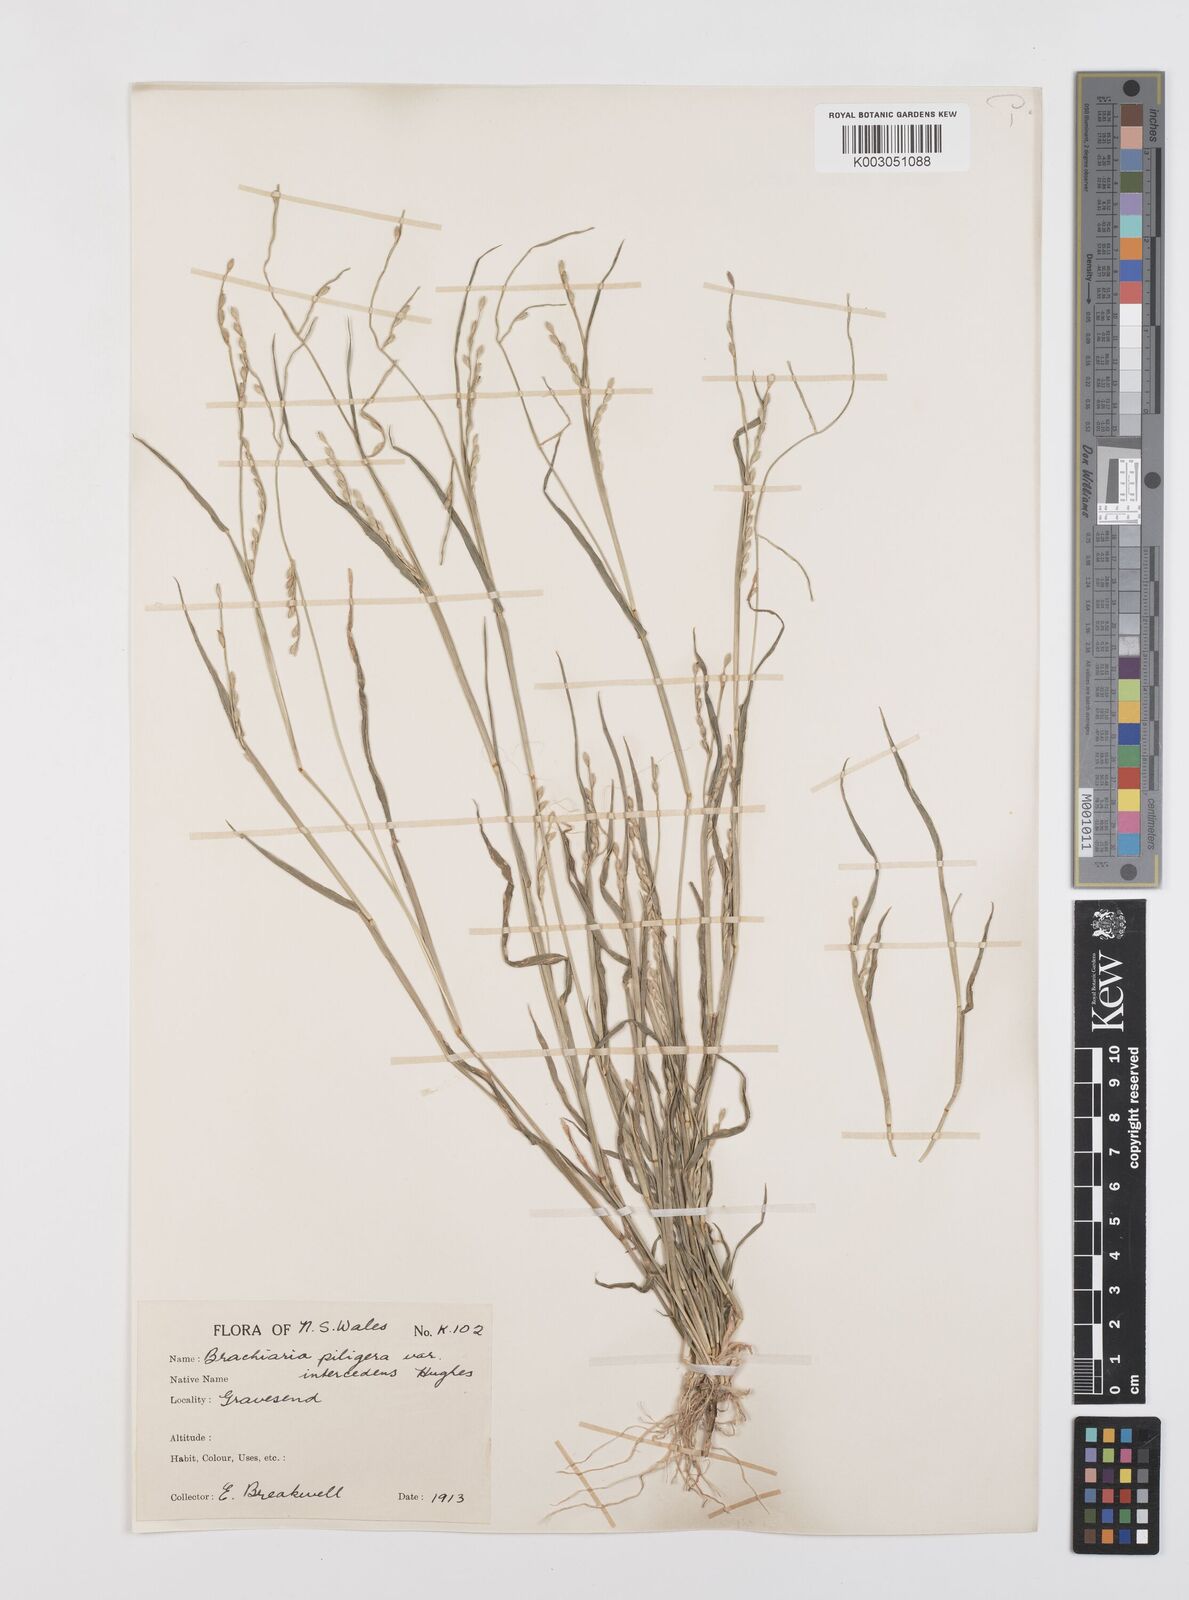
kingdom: Plantae
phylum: Tracheophyta
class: Liliopsida
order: Poales
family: Poaceae
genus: Urochloa
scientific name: Urochloa piligera
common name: Wattle signalgrass
